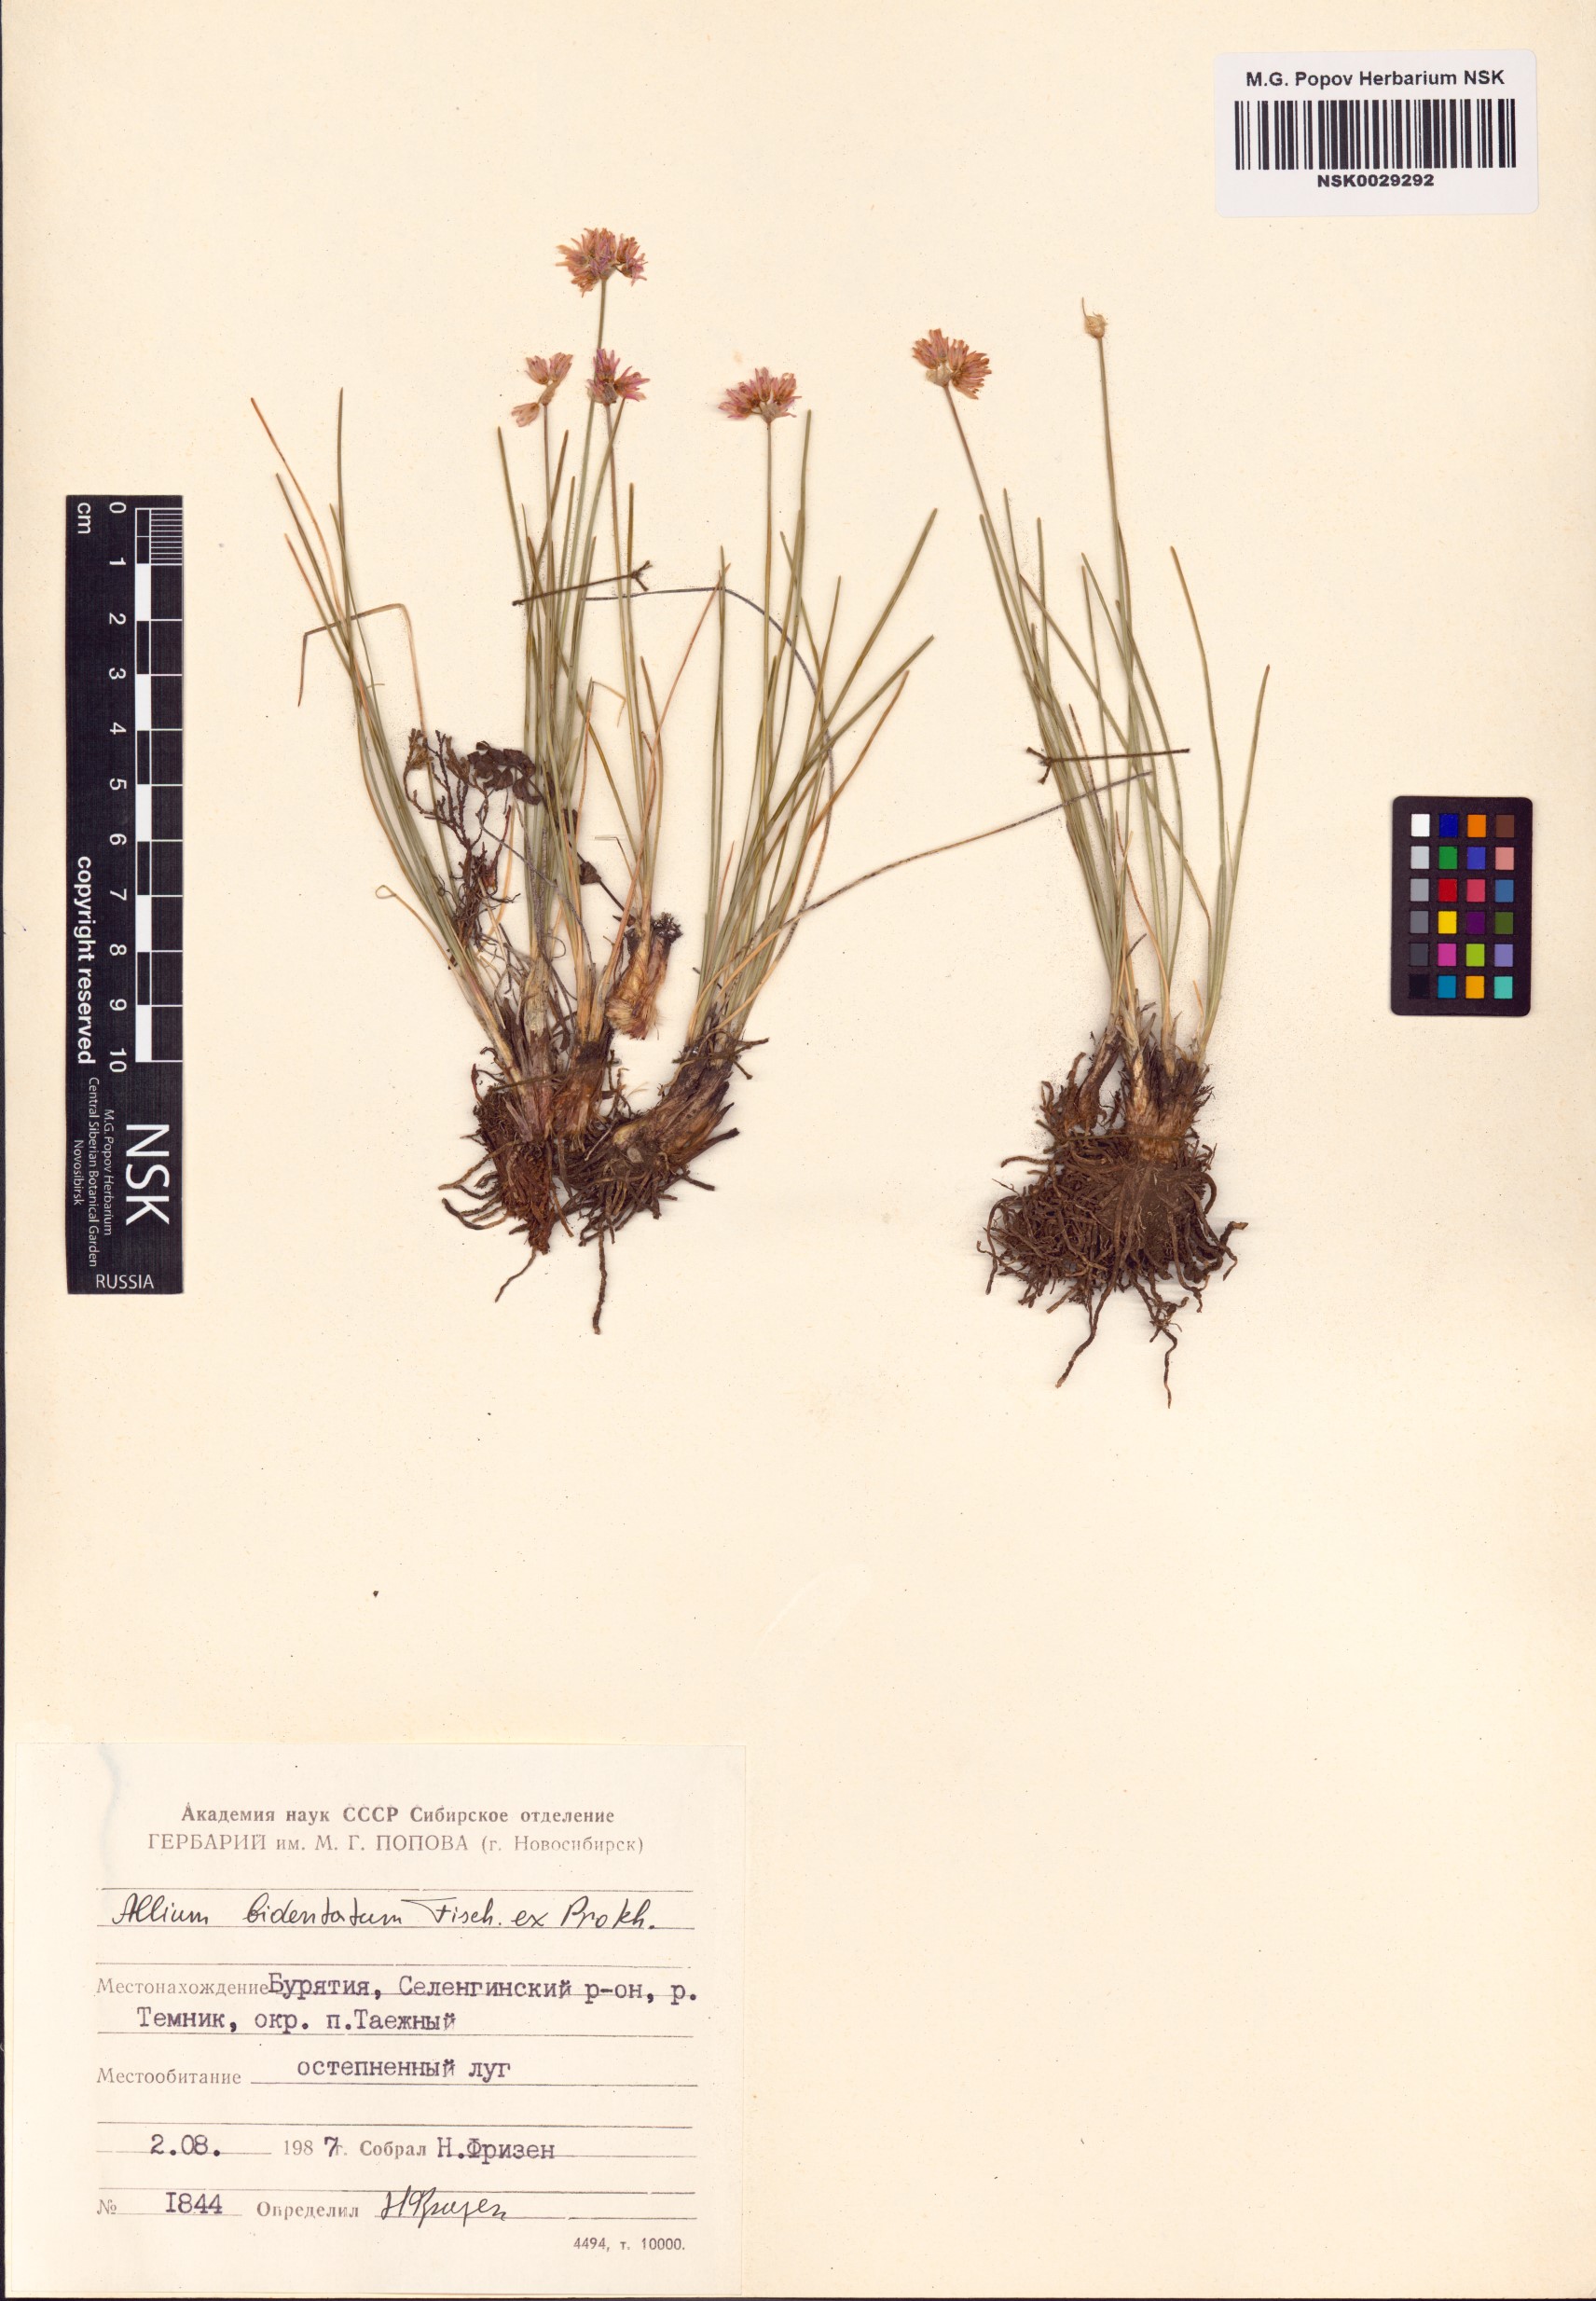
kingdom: Plantae
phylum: Tracheophyta
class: Liliopsida
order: Asparagales
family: Amaryllidaceae
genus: Allium
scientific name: Allium bidentatum
